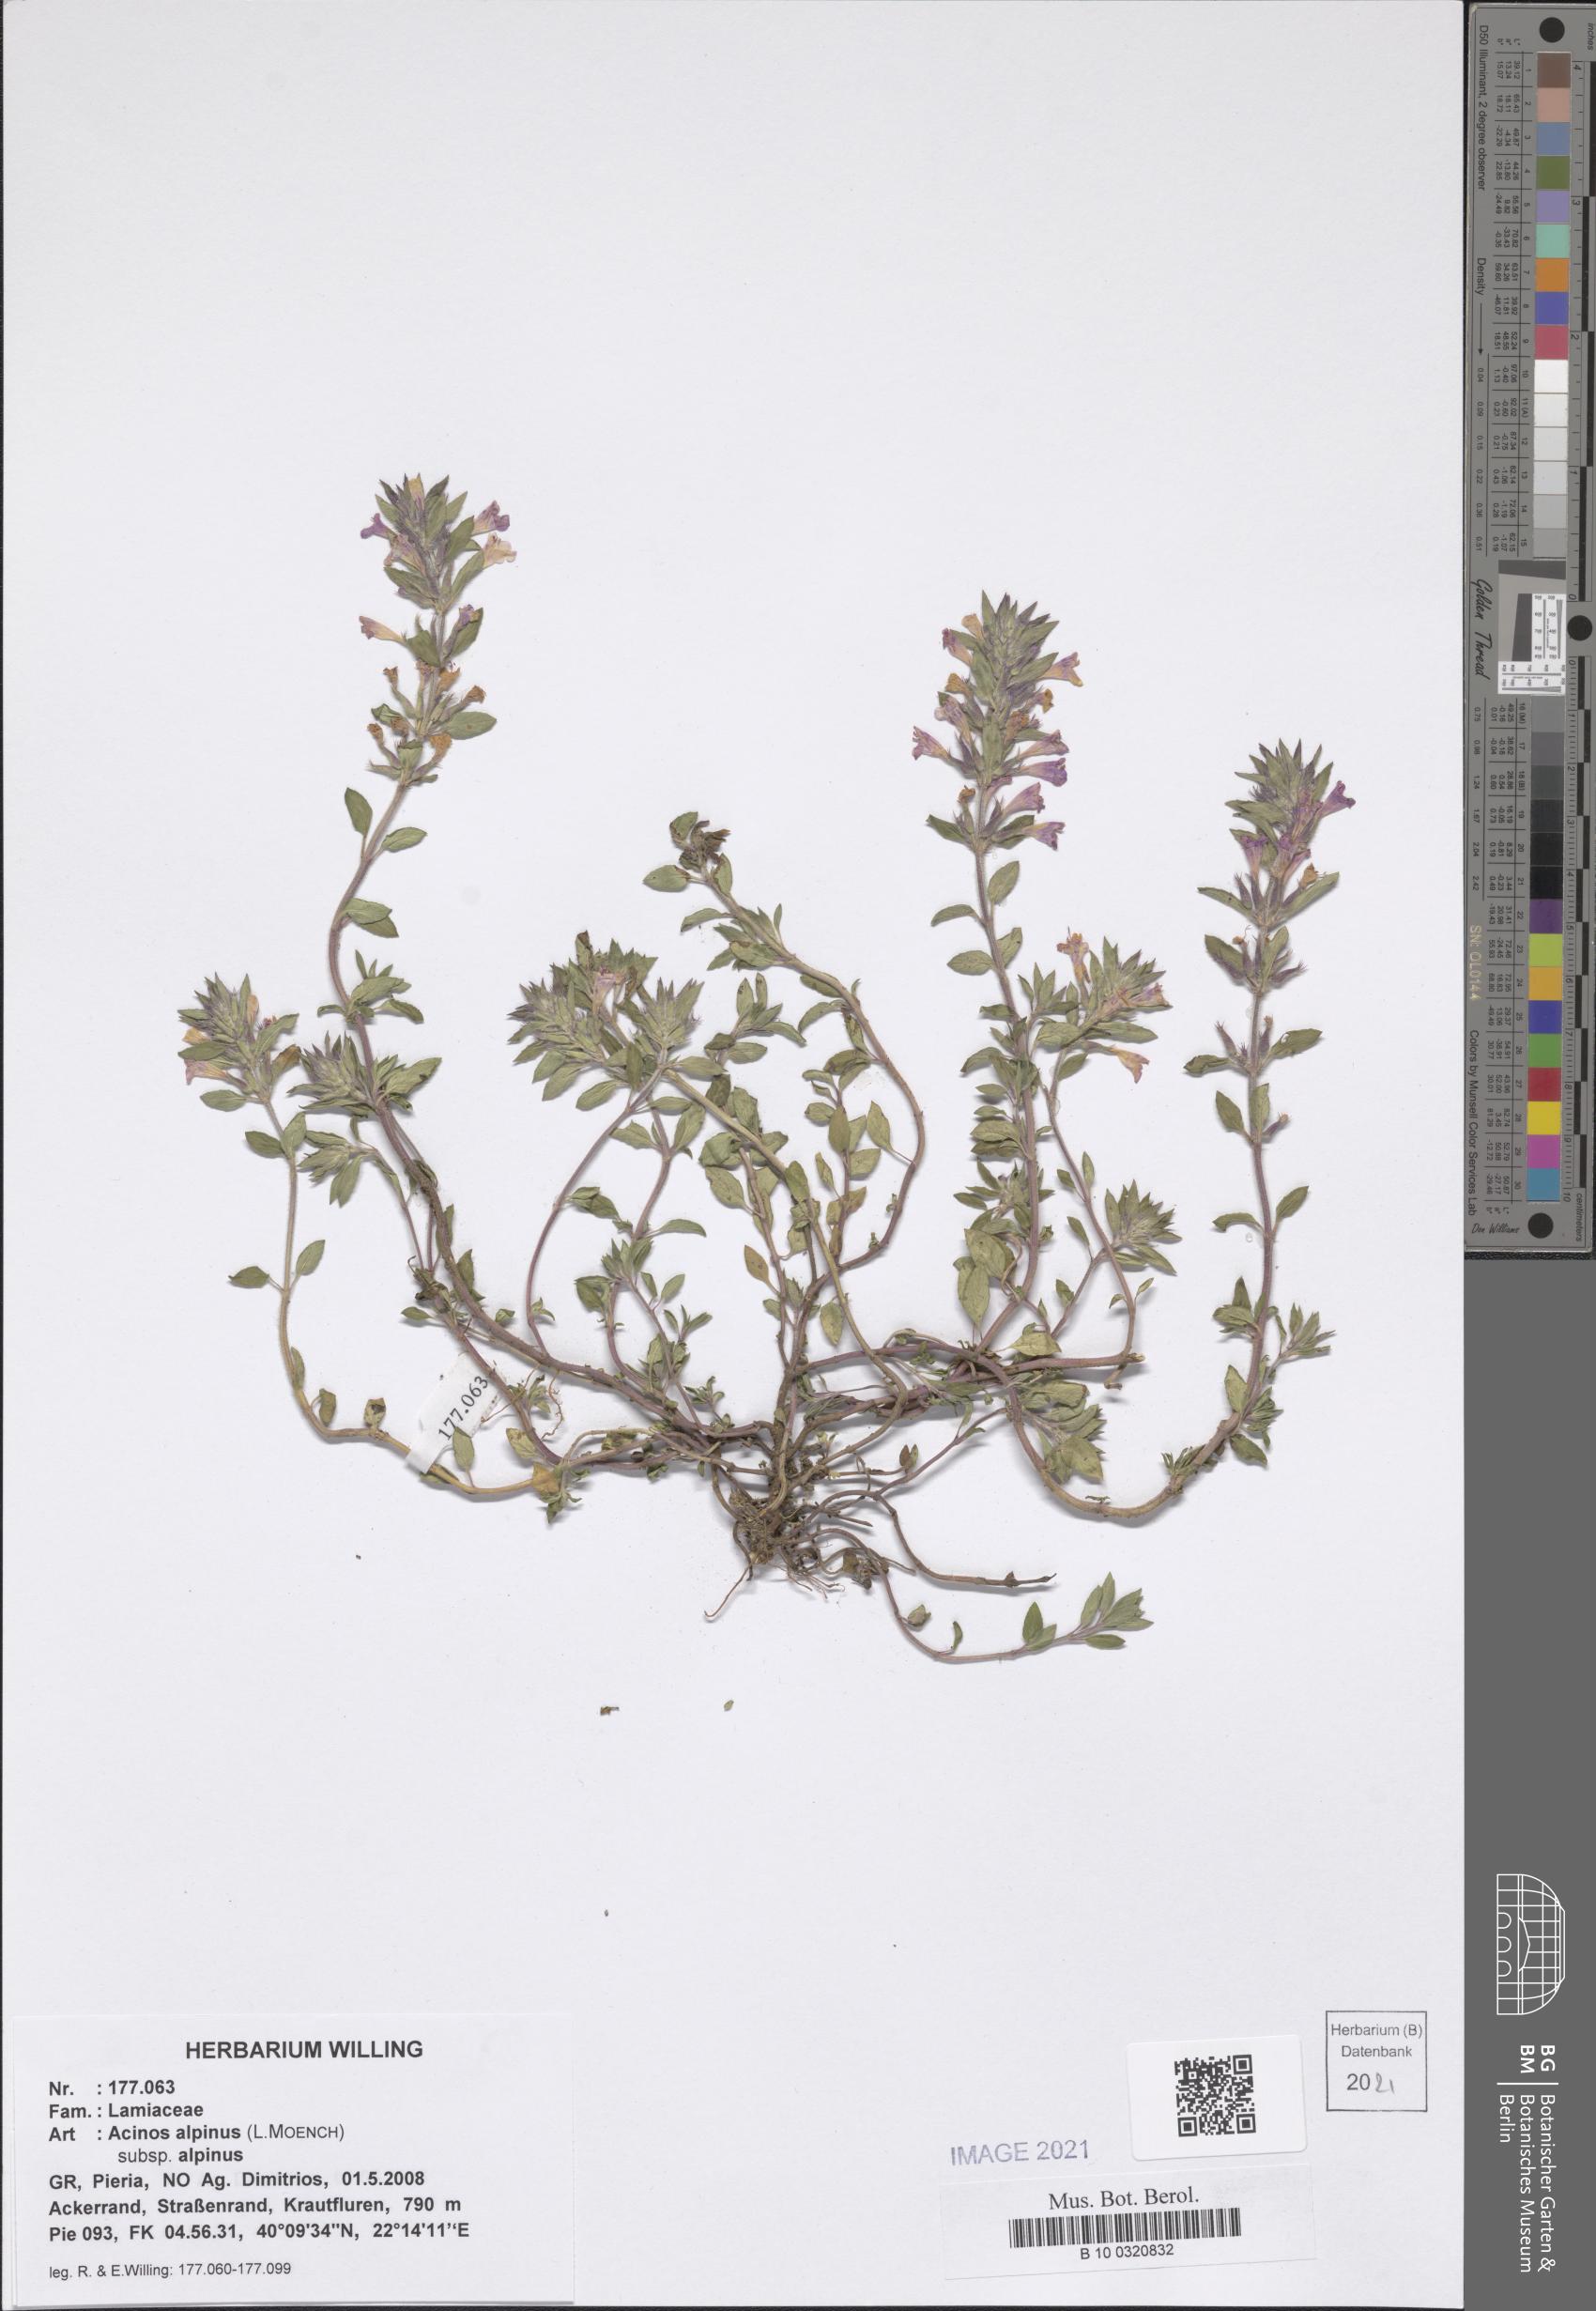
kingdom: Plantae
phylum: Tracheophyta
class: Magnoliopsida
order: Lamiales
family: Lamiaceae
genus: Clinopodium
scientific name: Clinopodium alpinum
